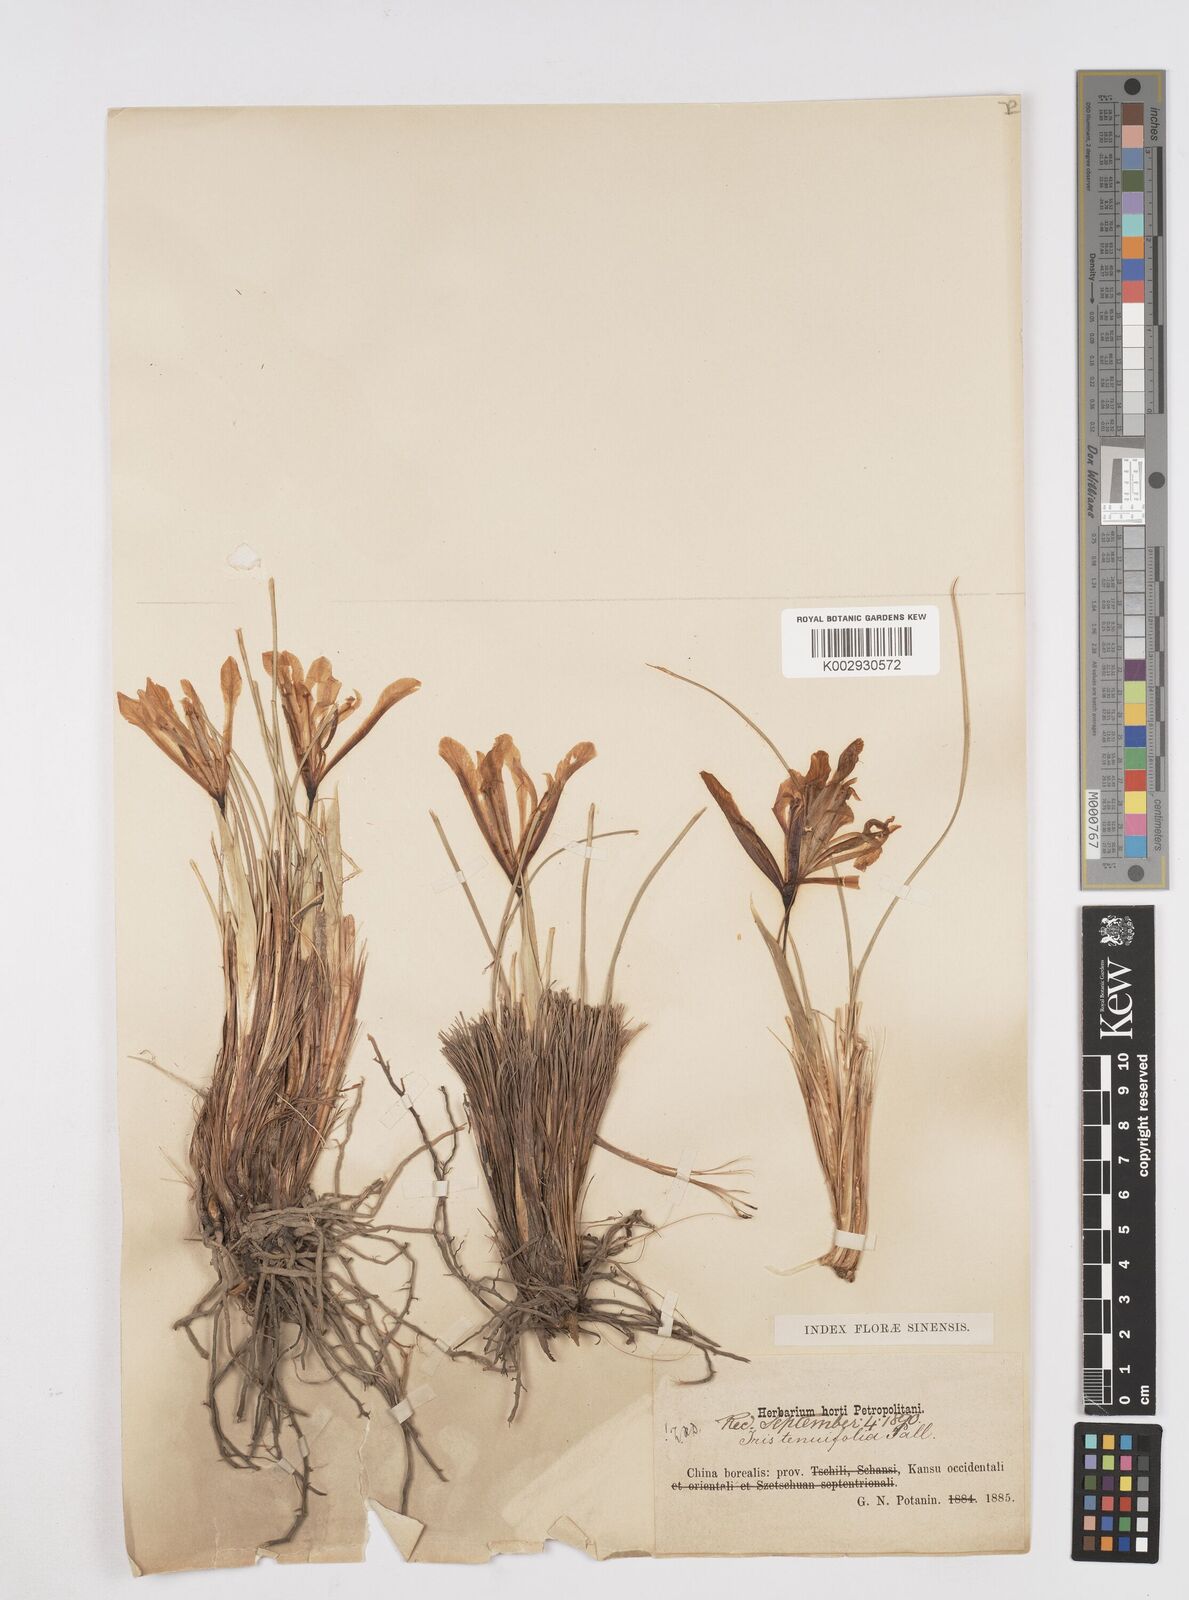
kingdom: Plantae
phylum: Tracheophyta
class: Liliopsida
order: Asparagales
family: Iridaceae
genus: Iris
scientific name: Iris tenuifolia
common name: Slender-leaf iris
